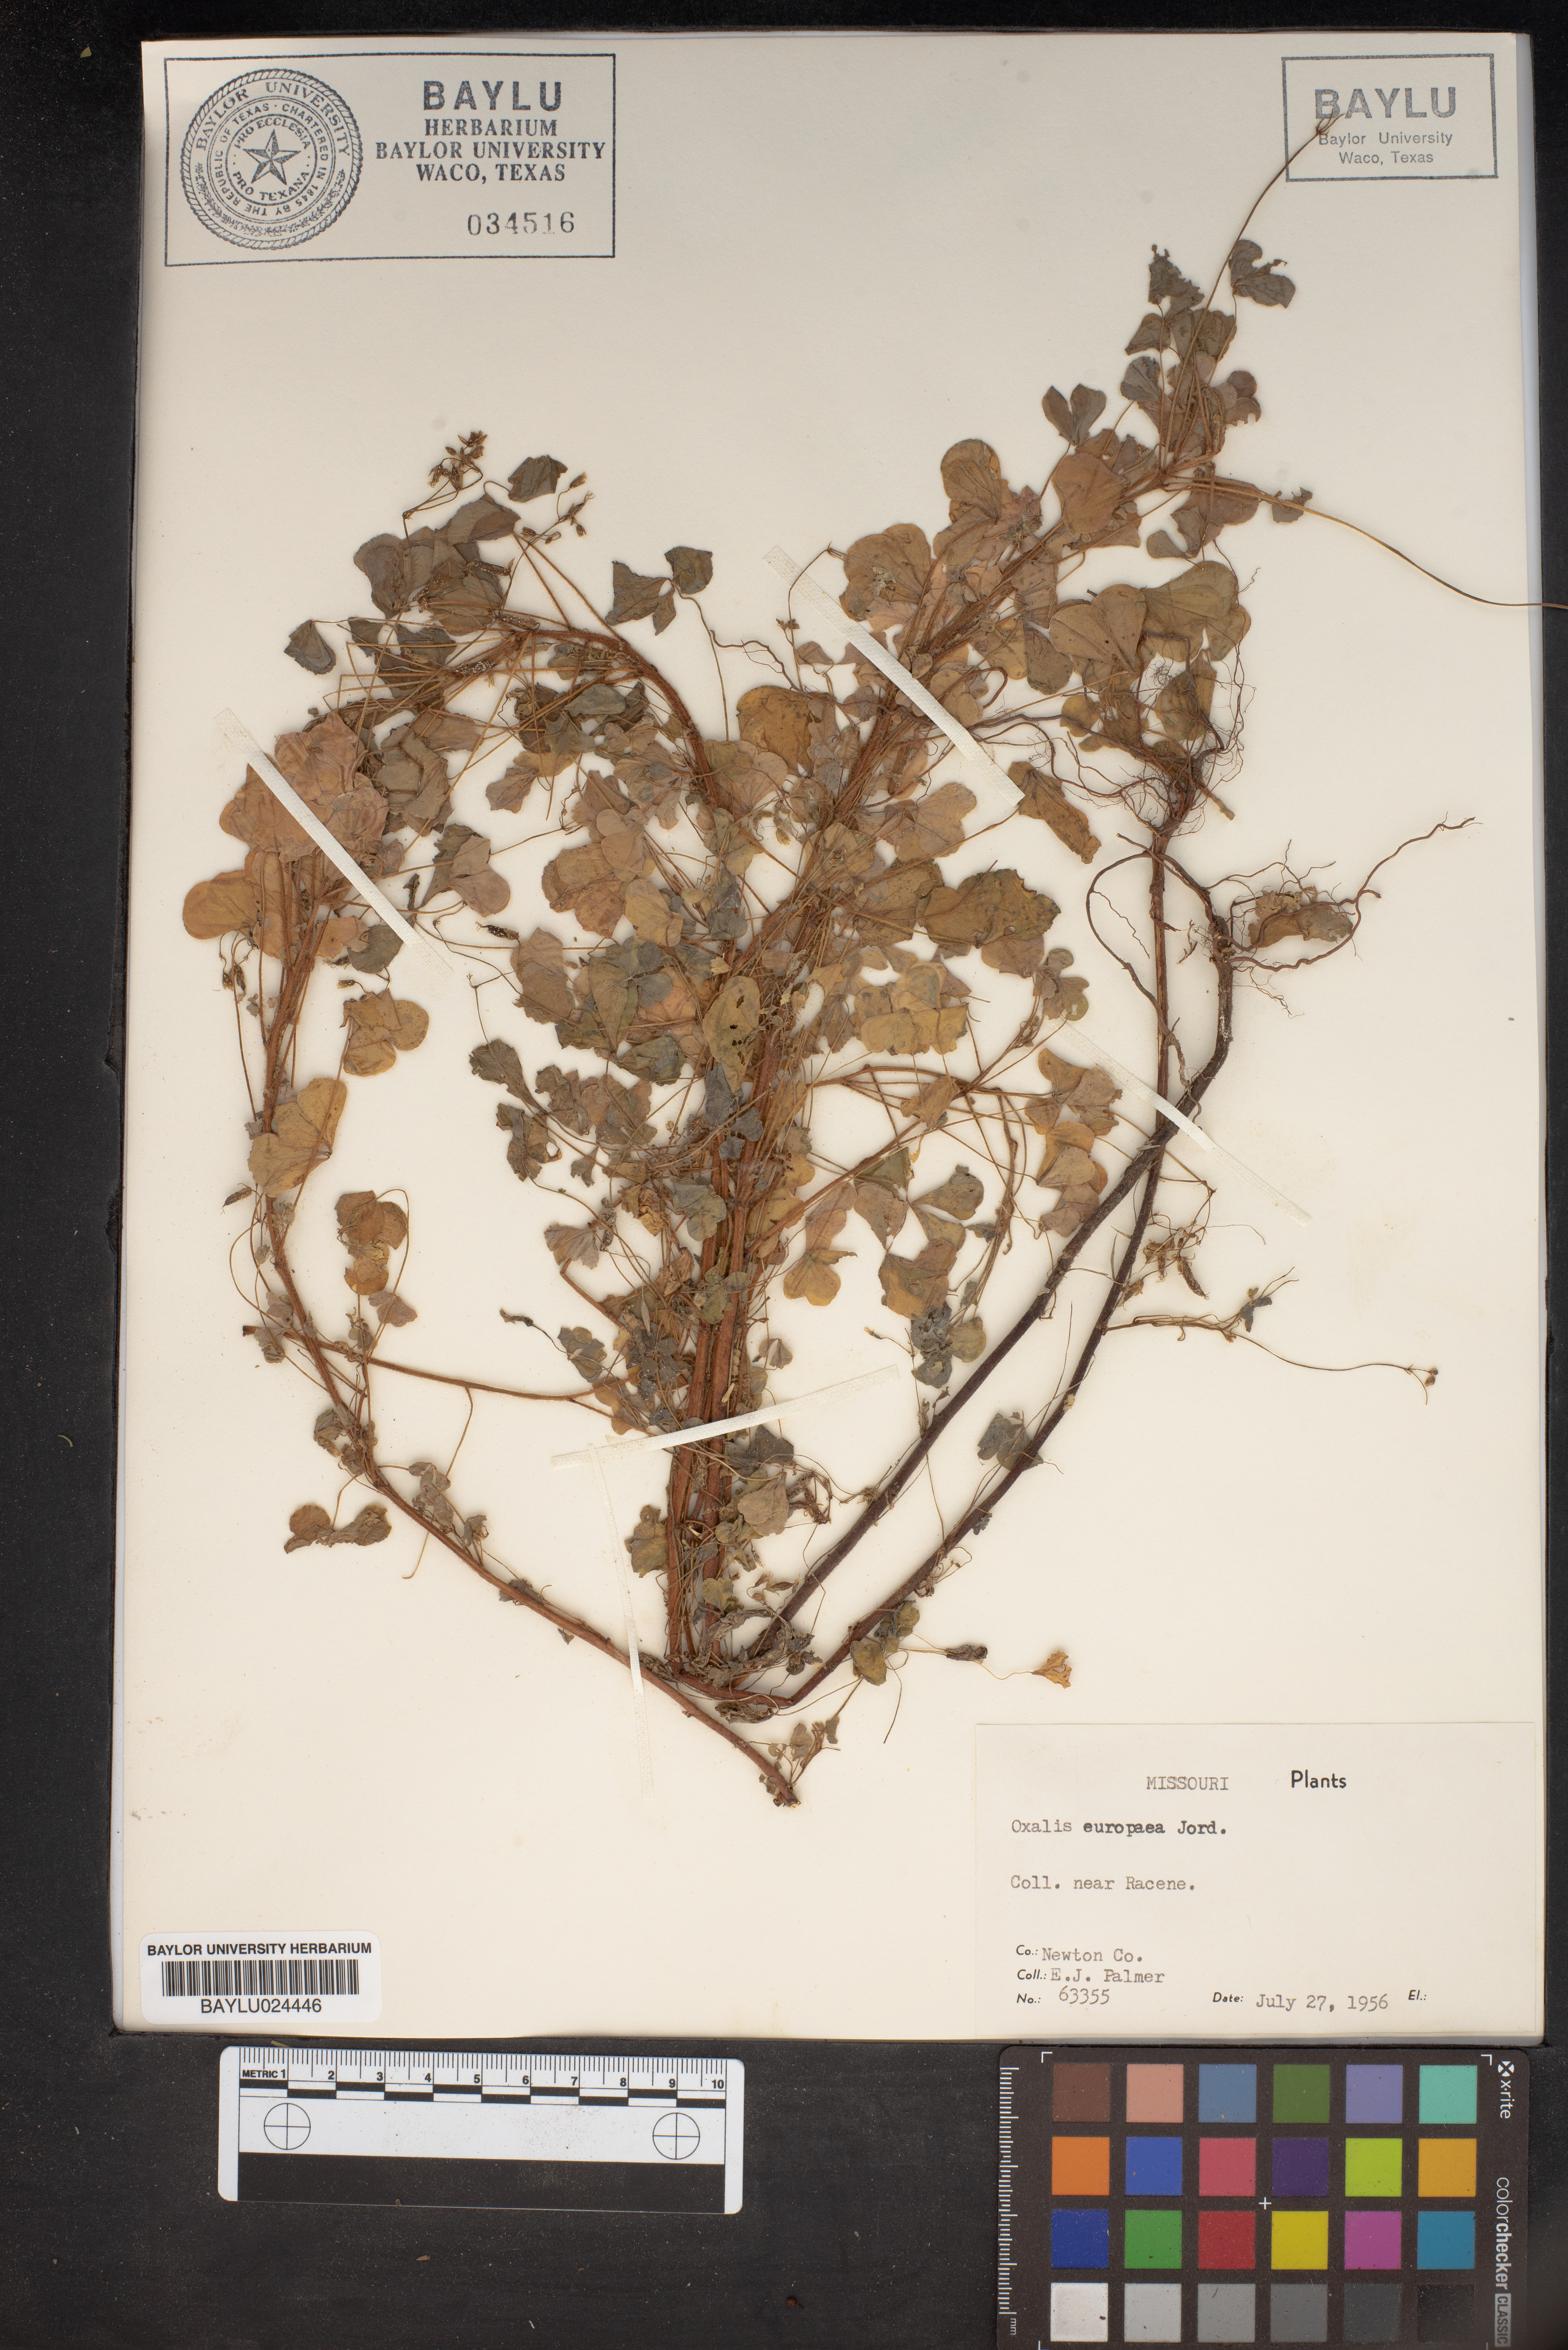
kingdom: Plantae
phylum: Tracheophyta
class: Magnoliopsida
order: Oxalidales
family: Oxalidaceae
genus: Oxalis
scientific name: Oxalis stricta
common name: Upright yellow-sorrel
